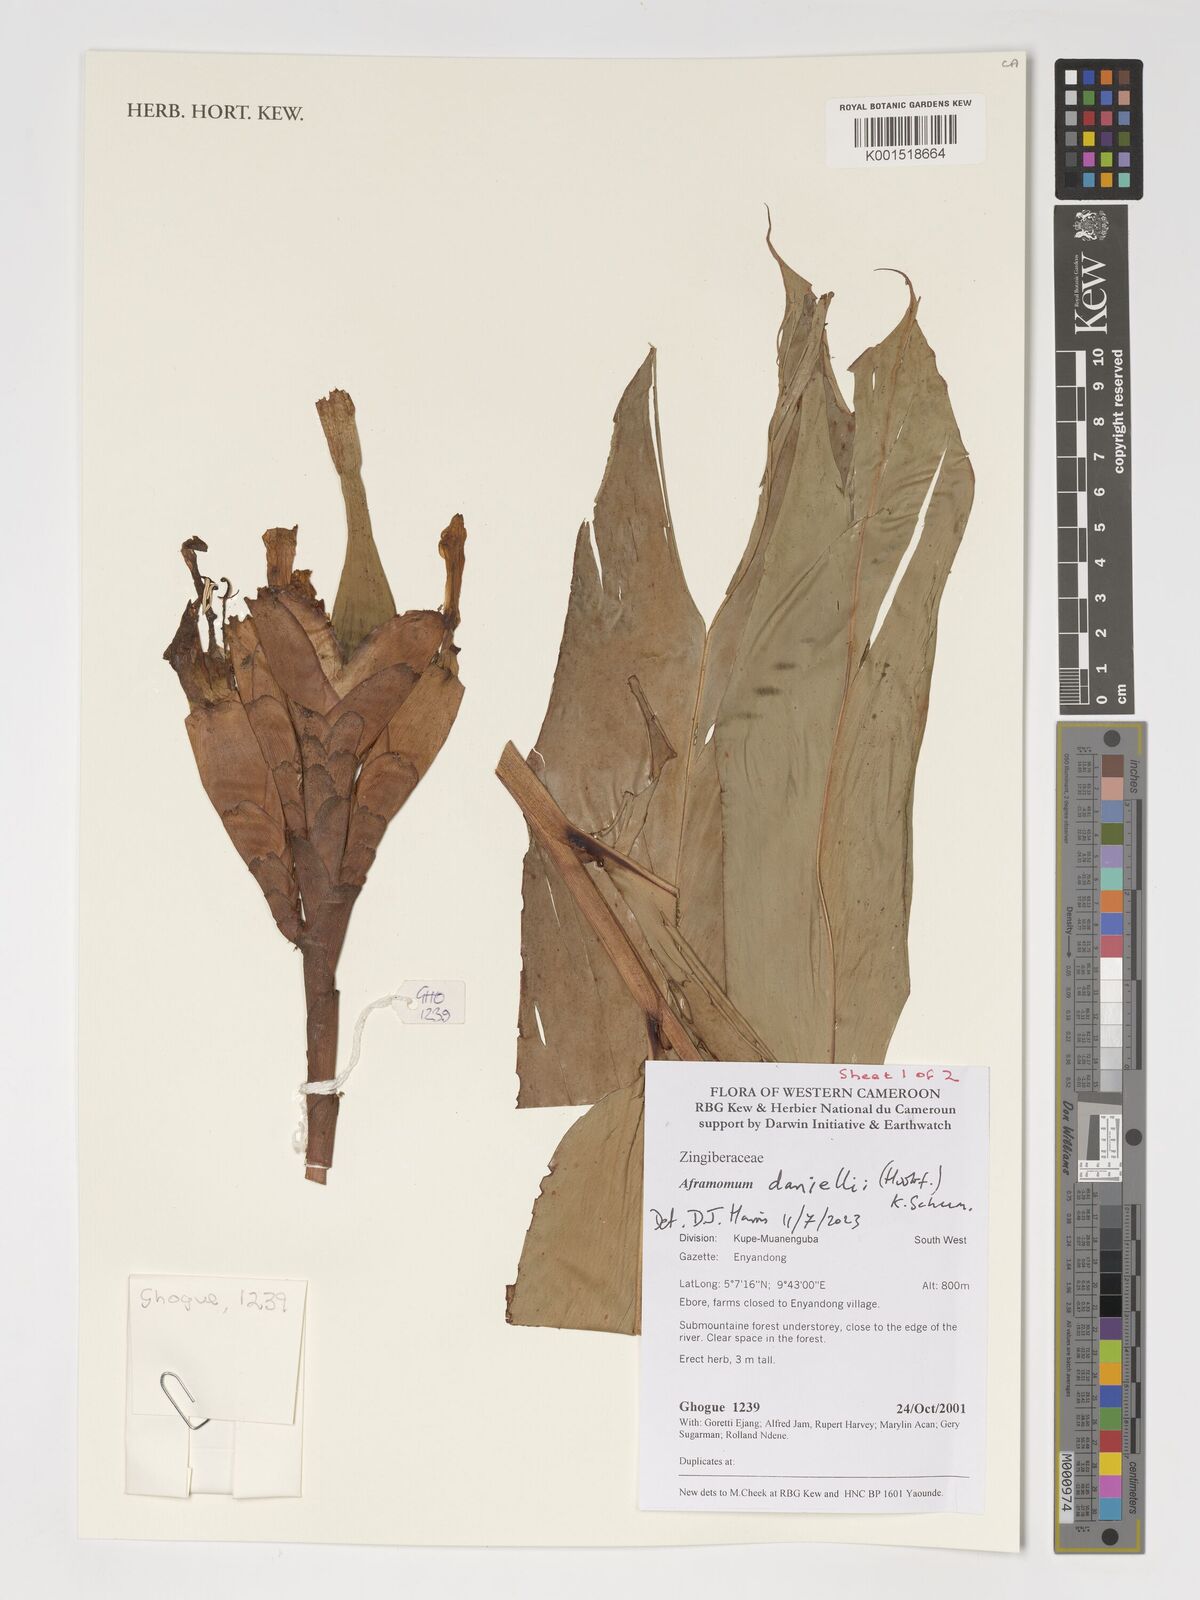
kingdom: Plantae
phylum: Tracheophyta
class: Liliopsida
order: Zingiberales
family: Zingiberaceae
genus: Aframomum
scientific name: Aframomum daniellii
